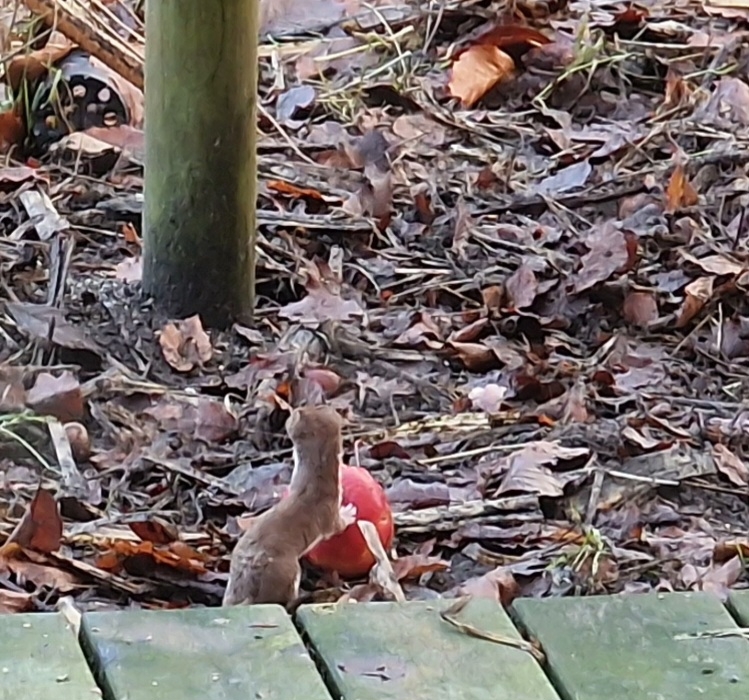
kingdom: Animalia
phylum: Chordata
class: Mammalia
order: Carnivora
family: Mustelidae
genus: Mustela
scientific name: Mustela nivalis
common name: Brud
